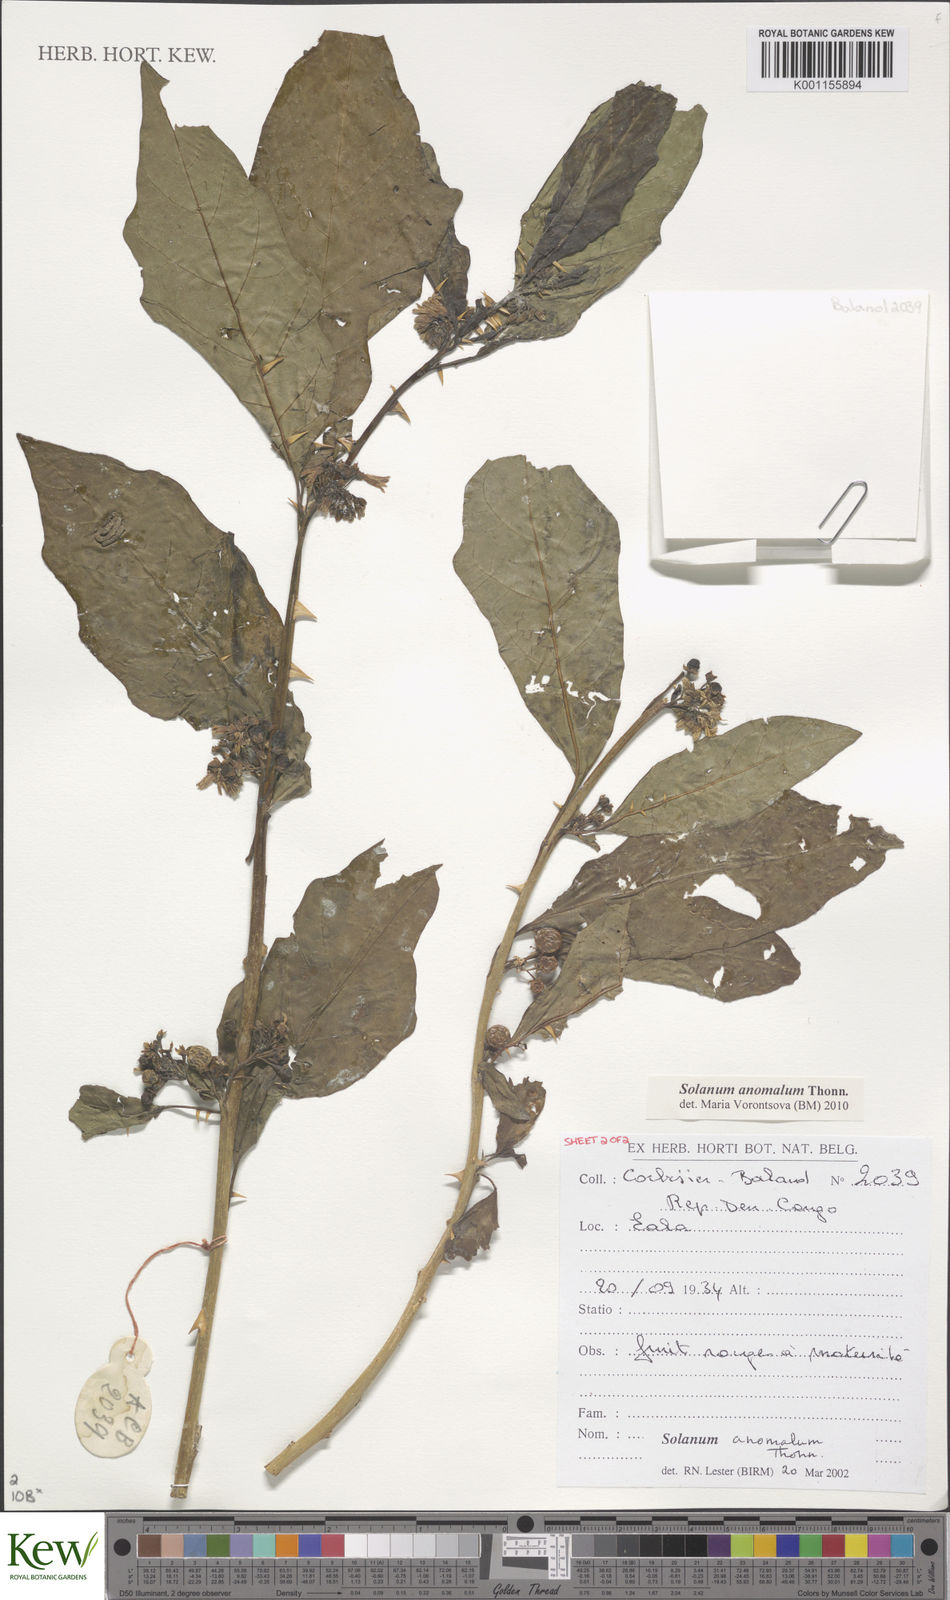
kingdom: Plantae
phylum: Tracheophyta
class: Magnoliopsida
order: Solanales
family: Solanaceae
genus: Solanum
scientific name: Solanum anomalum
